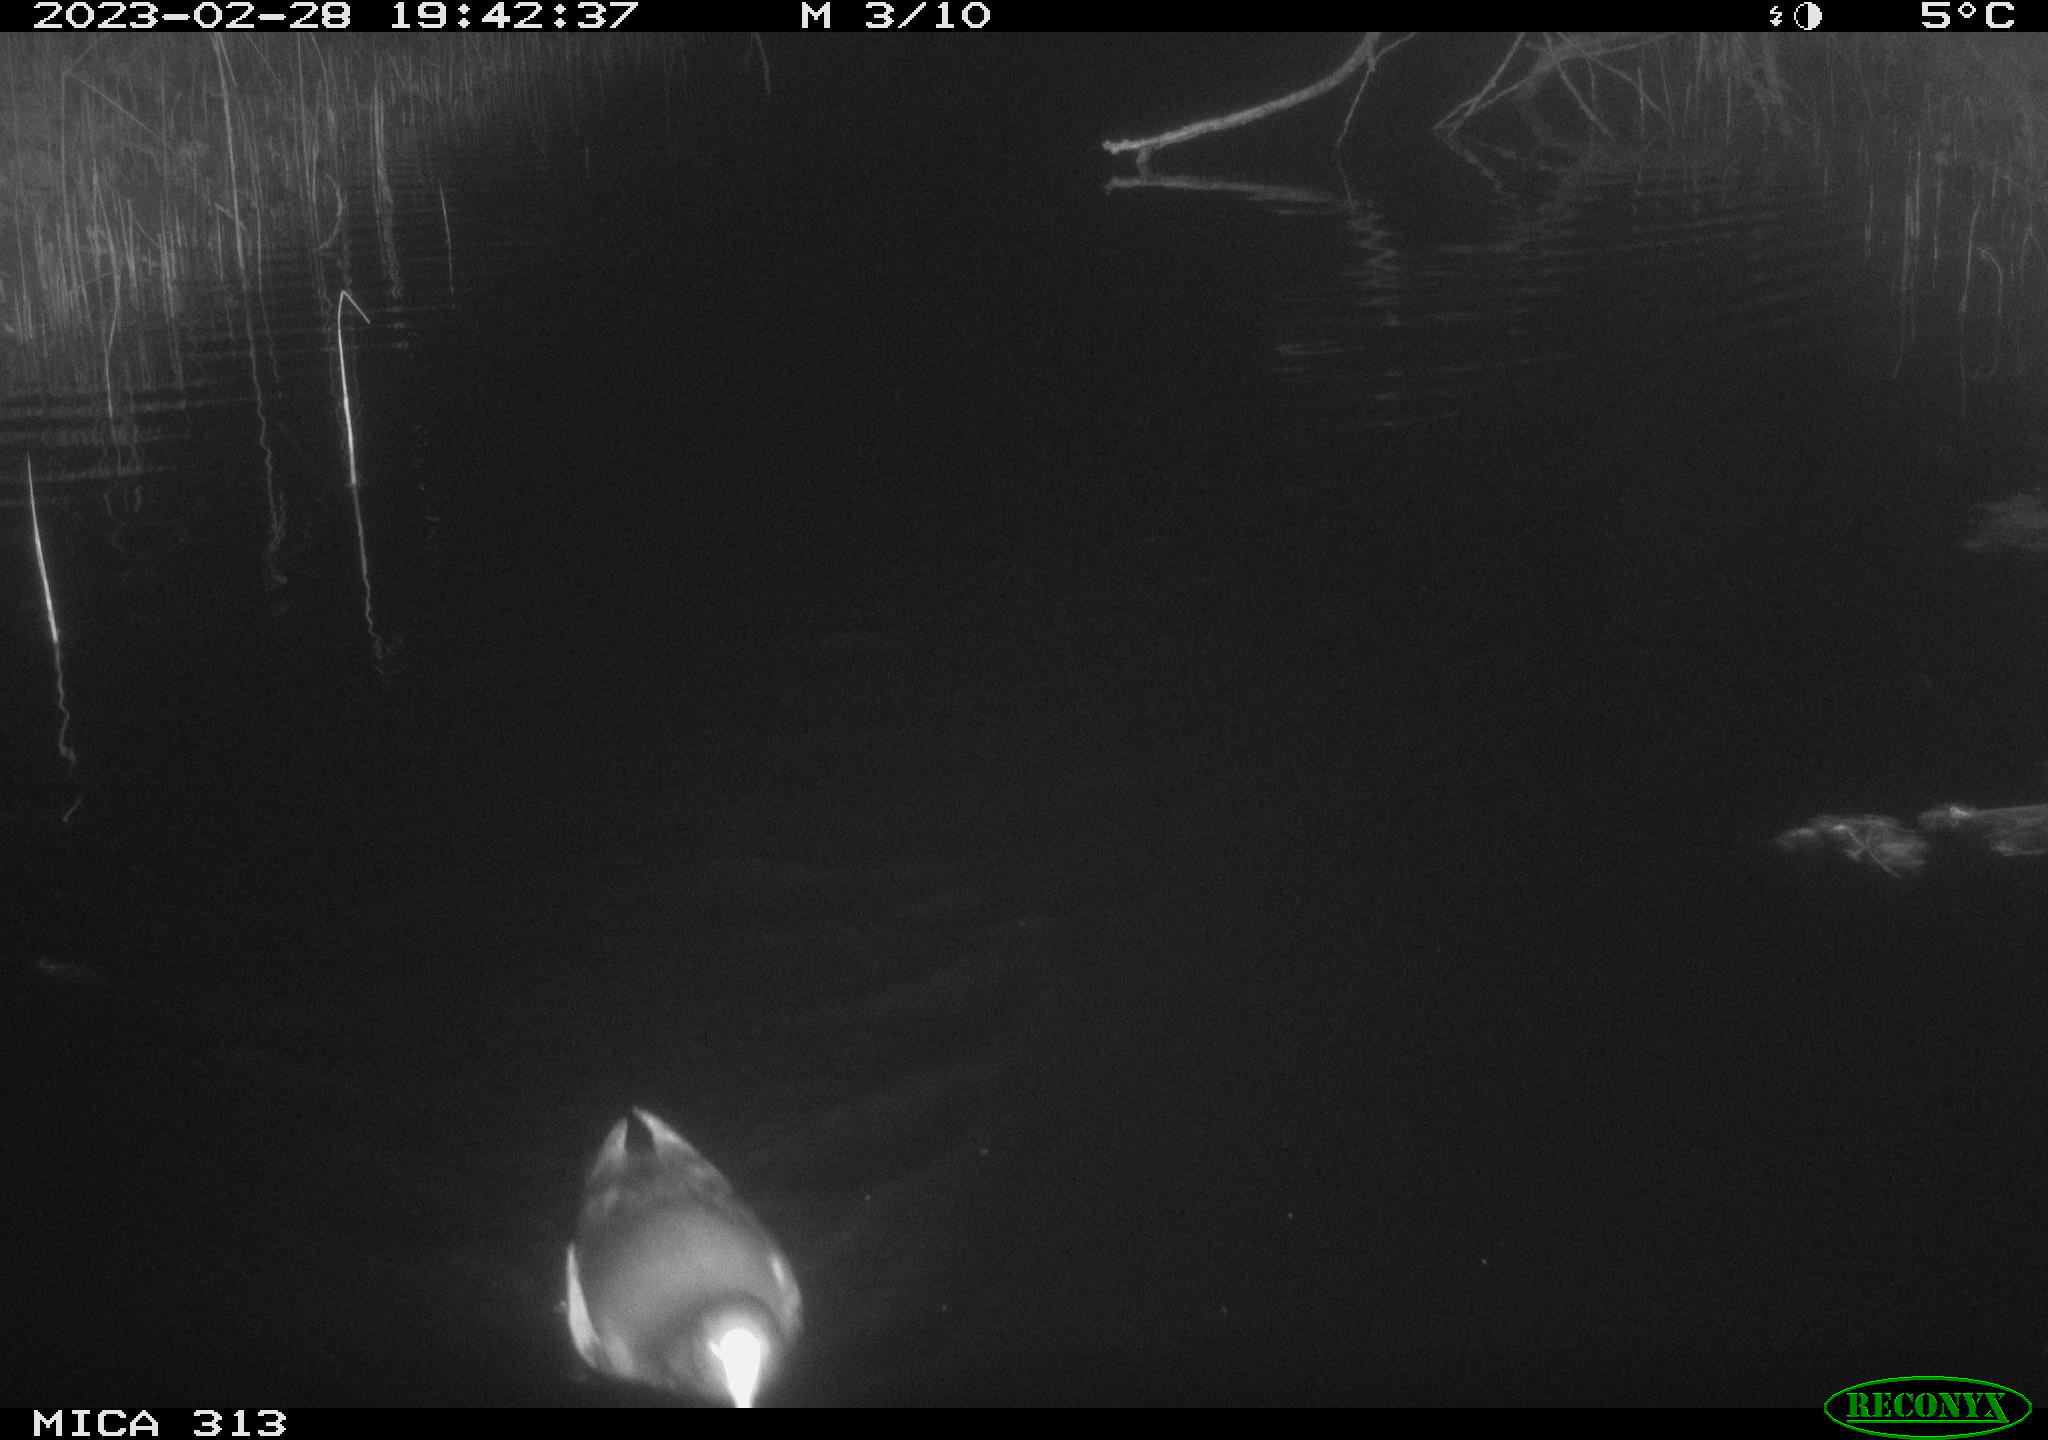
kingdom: Animalia
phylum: Chordata
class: Aves
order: Anseriformes
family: Anatidae
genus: Anas
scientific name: Anas
